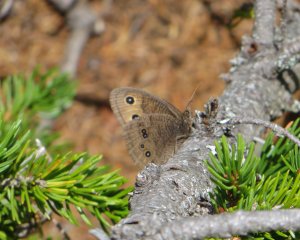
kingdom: Animalia
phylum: Arthropoda
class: Insecta
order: Lepidoptera
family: Nymphalidae
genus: Lethe
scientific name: Lethe eurydice
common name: Eyed Brown
